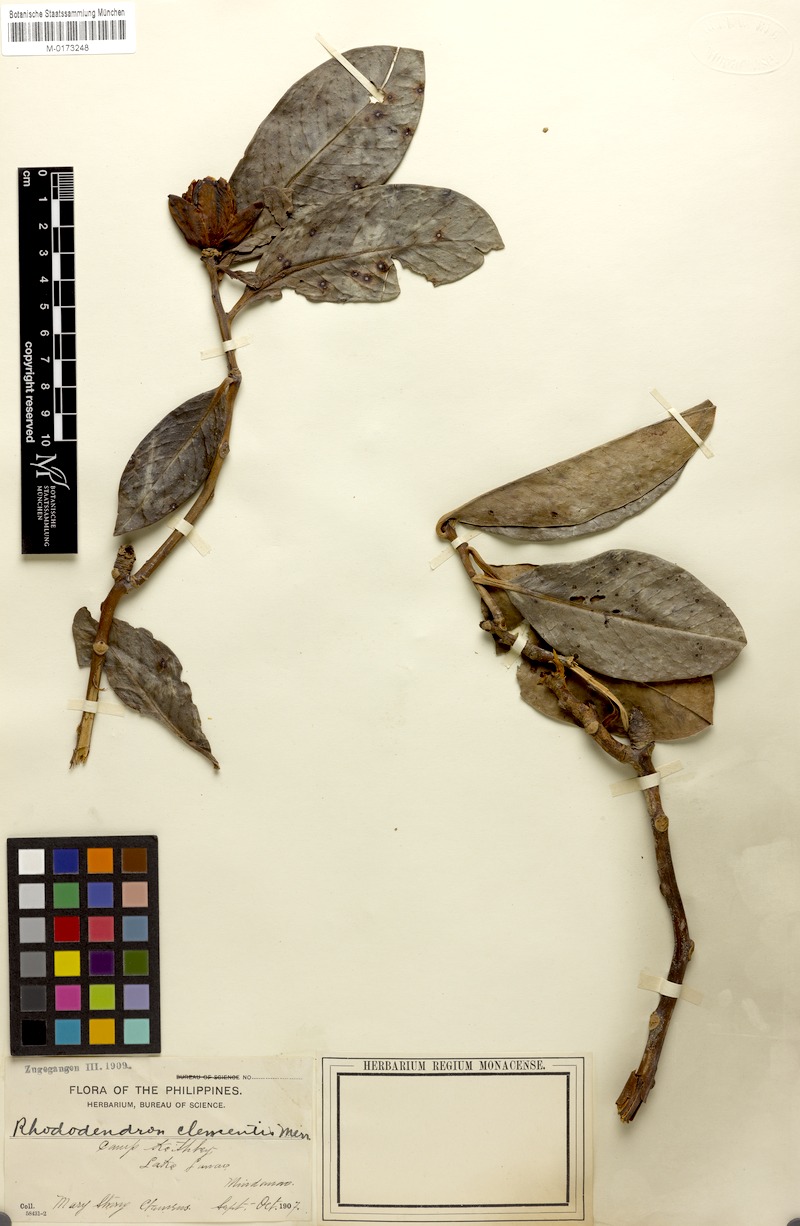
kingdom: Plantae
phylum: Tracheophyta
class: Magnoliopsida
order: Ericales
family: Ericaceae
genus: Rhododendron
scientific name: Rhododendron javanicum
